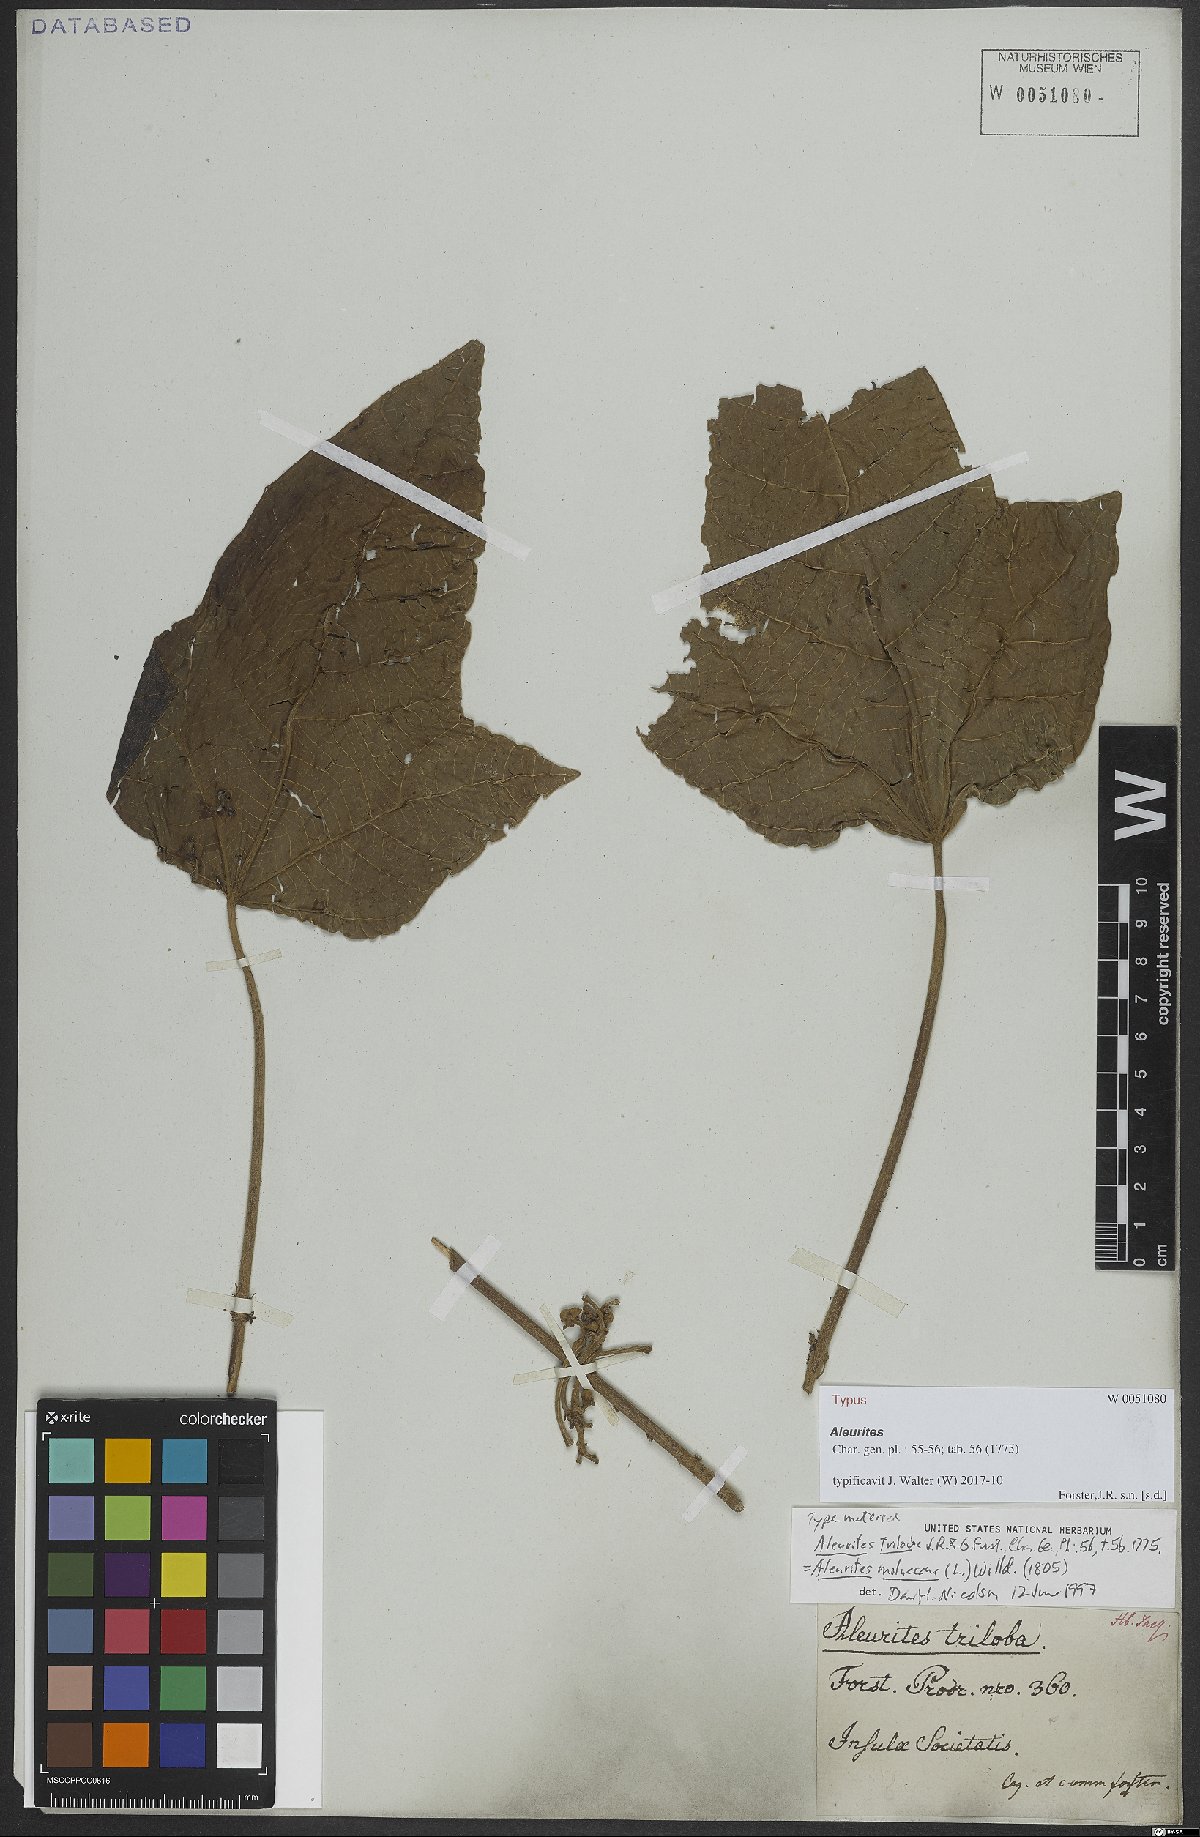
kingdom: Plantae
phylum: Tracheophyta
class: Magnoliopsida
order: Malpighiales
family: Euphorbiaceae
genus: Aleurites
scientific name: Aleurites moluccanus
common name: Candlenut tree
